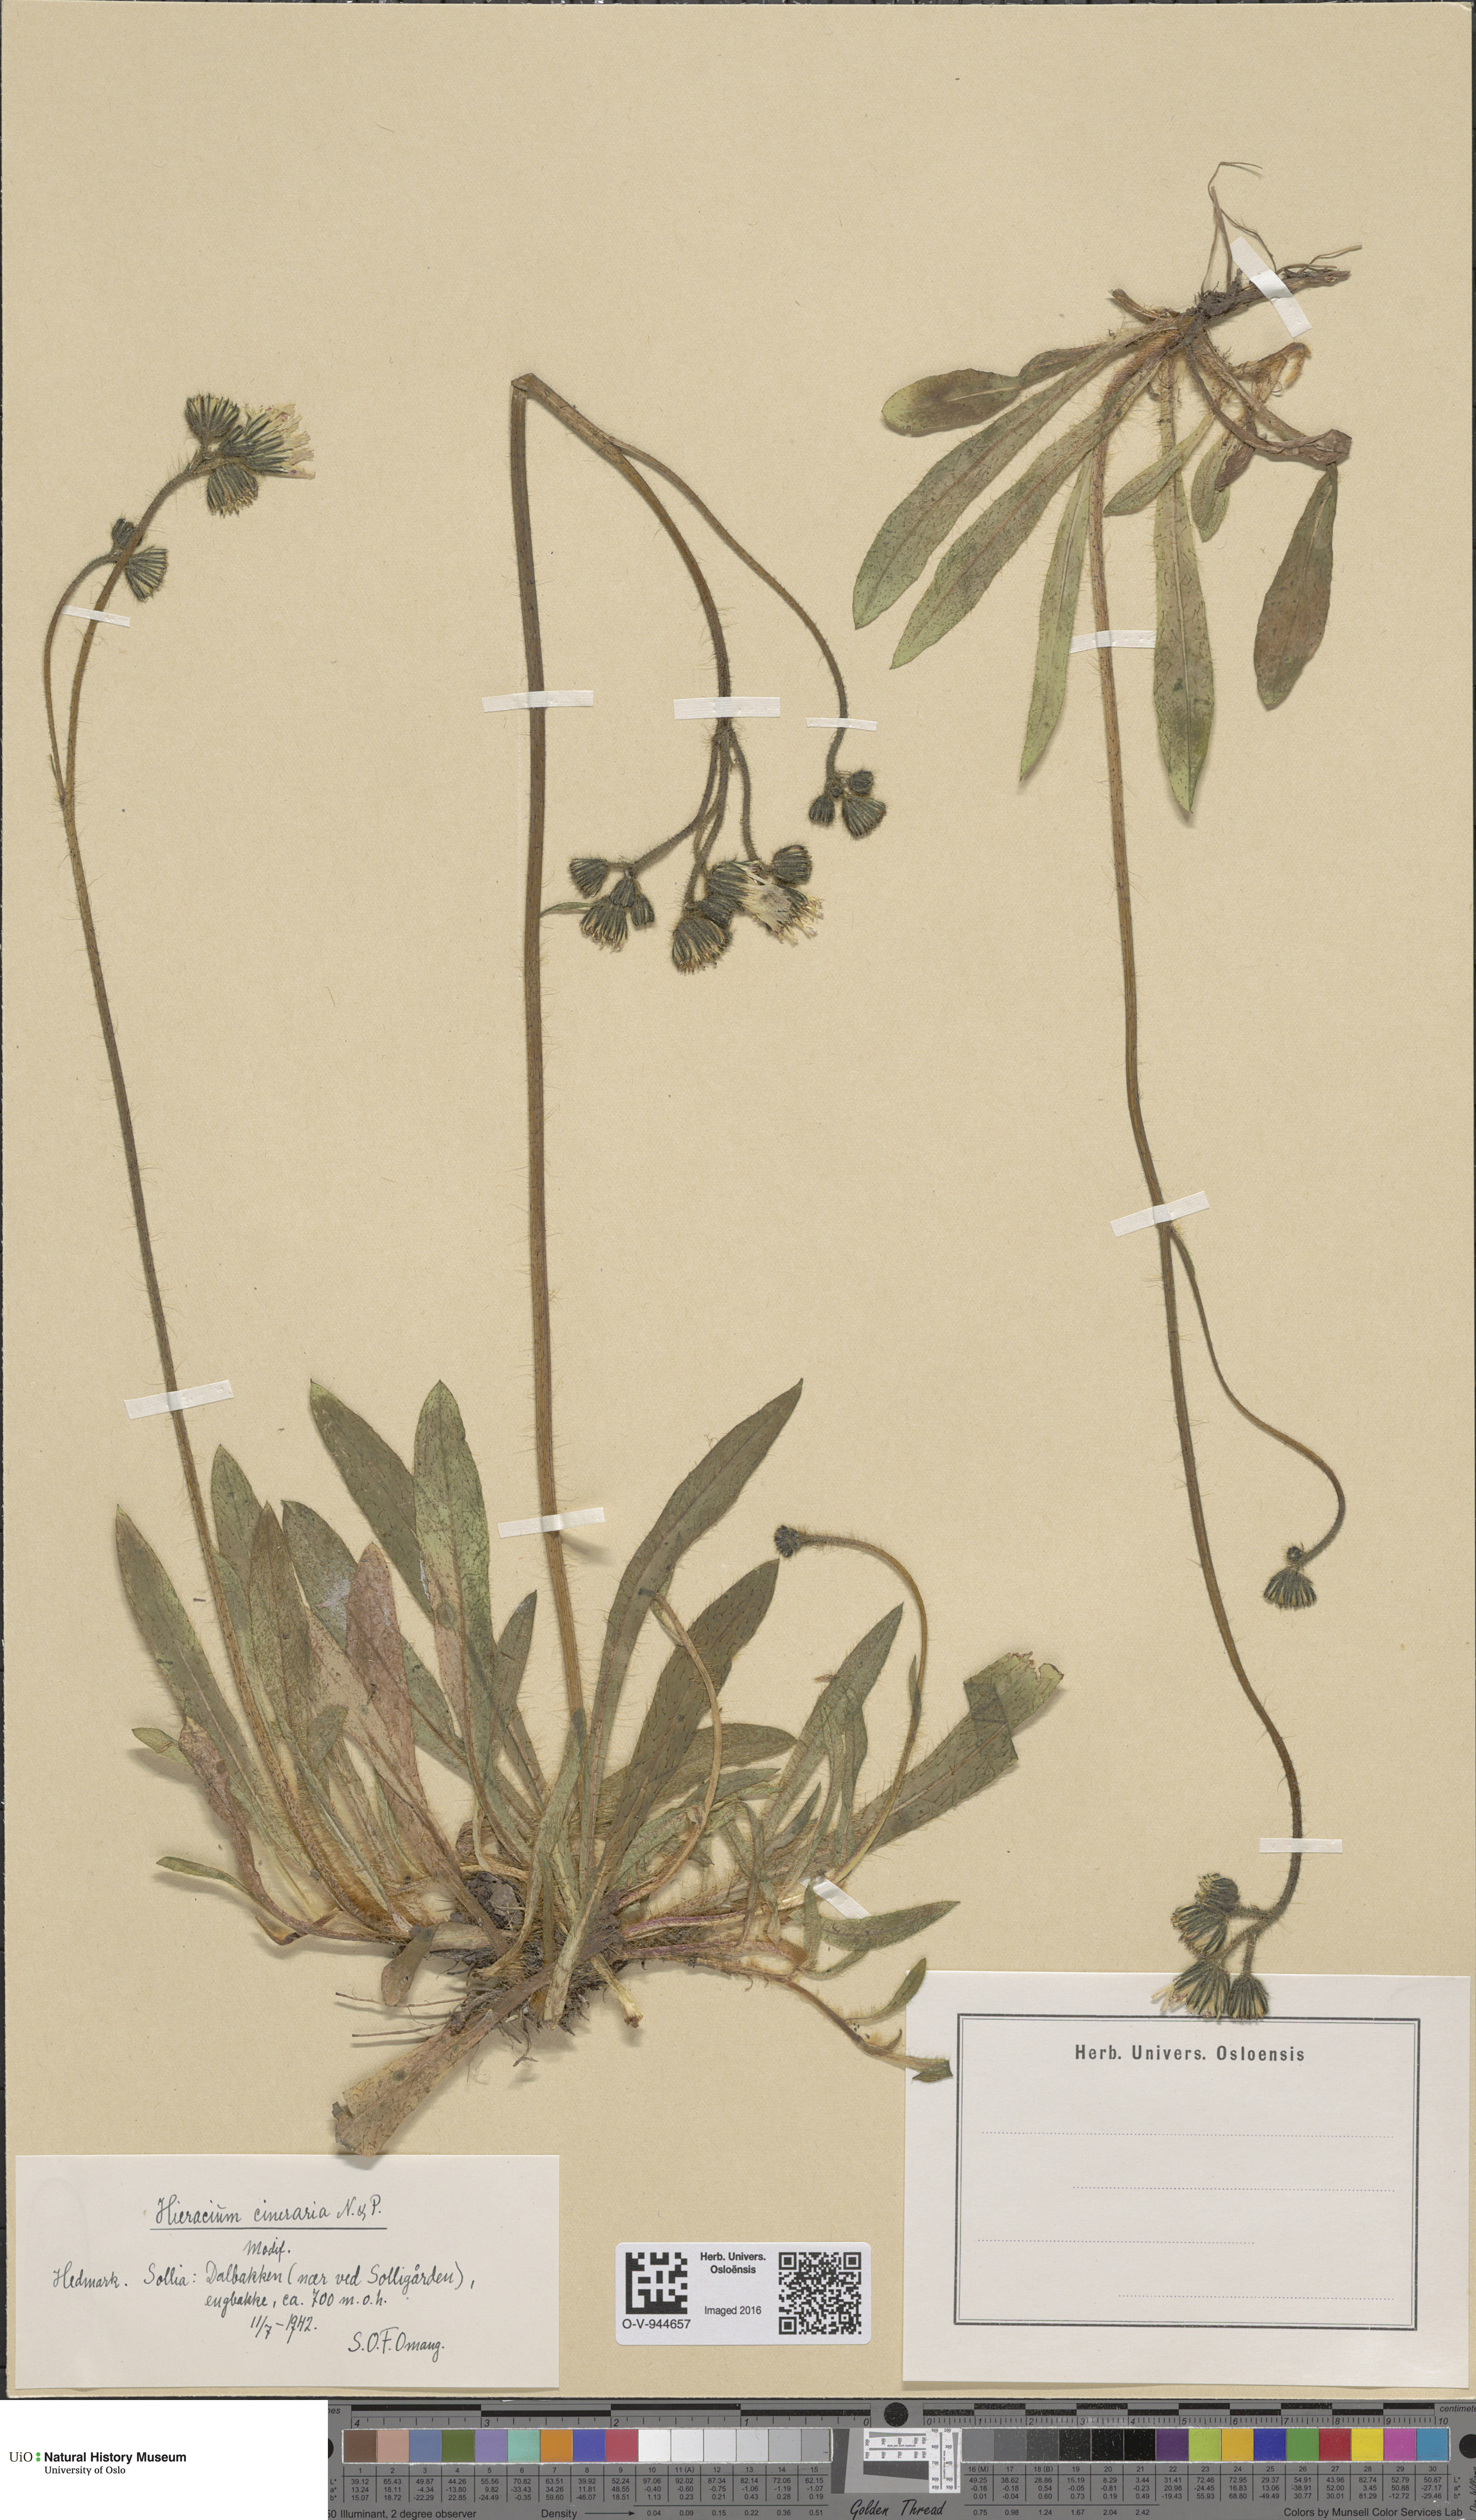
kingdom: Plantae
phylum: Tracheophyta
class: Magnoliopsida
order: Asterales
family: Asteraceae
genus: Pilosella
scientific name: Pilosella moechiadia
